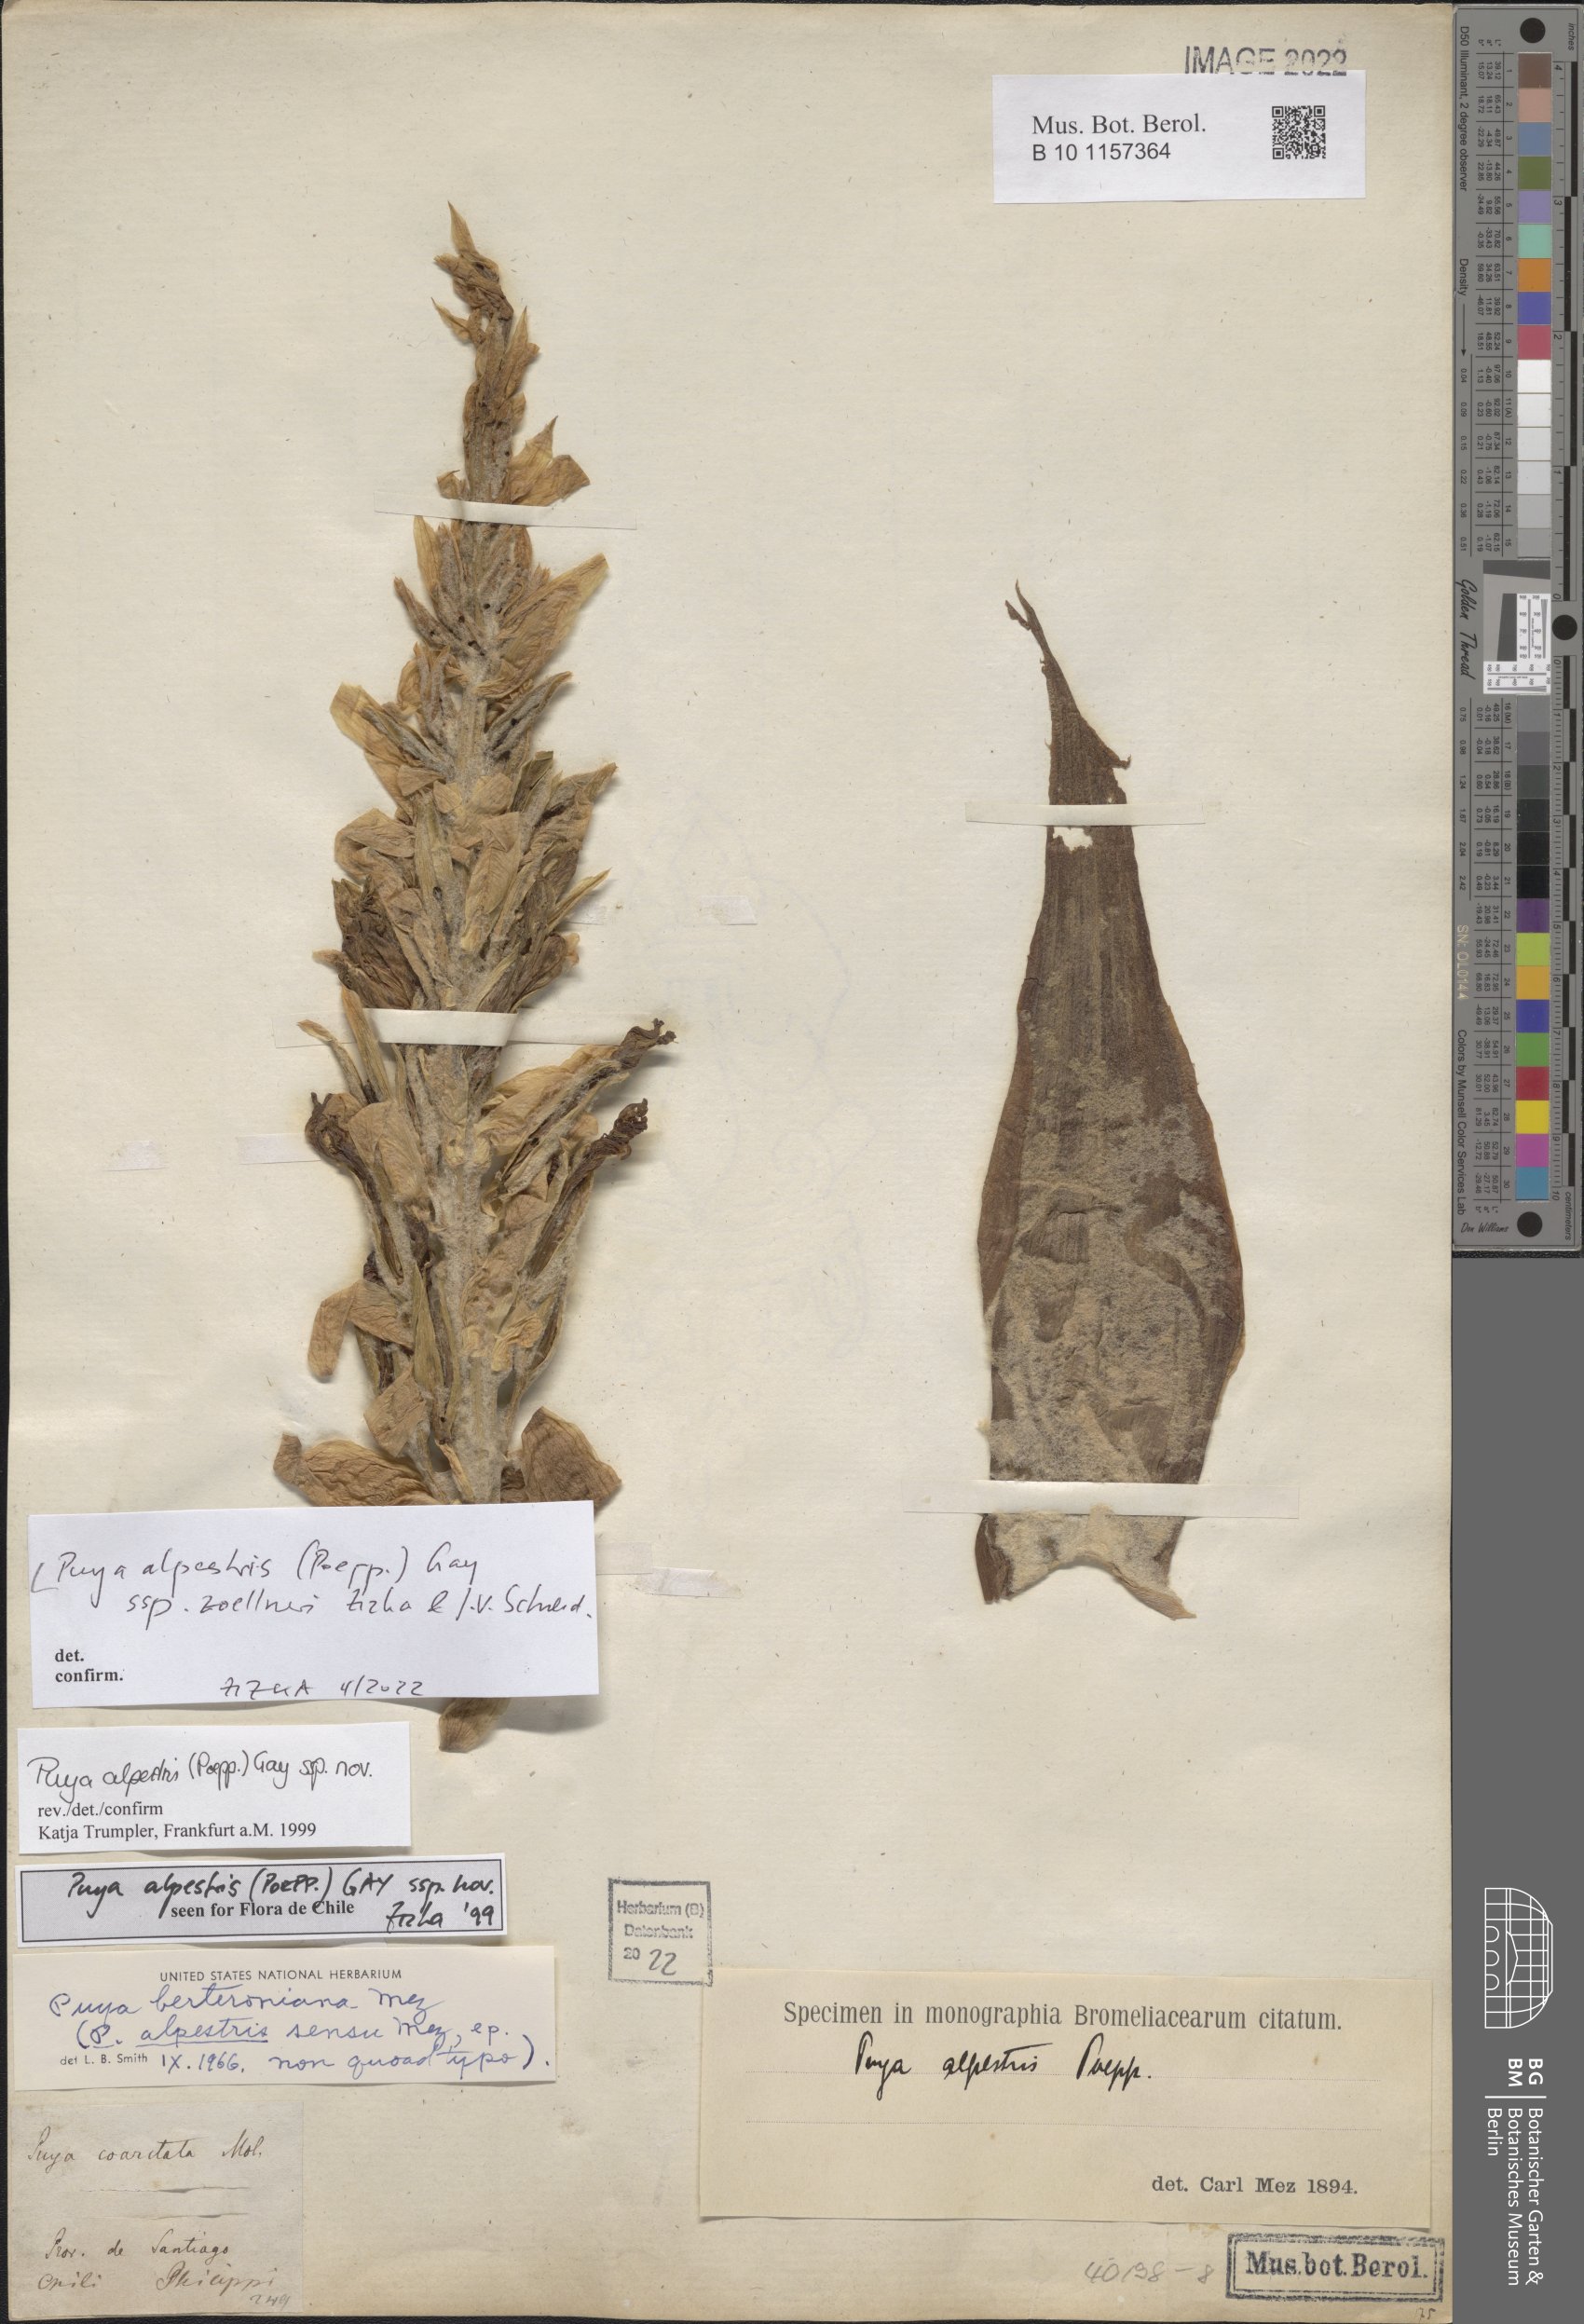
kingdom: Plantae
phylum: Tracheophyta
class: Liliopsida
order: Poales
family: Bromeliaceae
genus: Puya
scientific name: Puya alpestris
